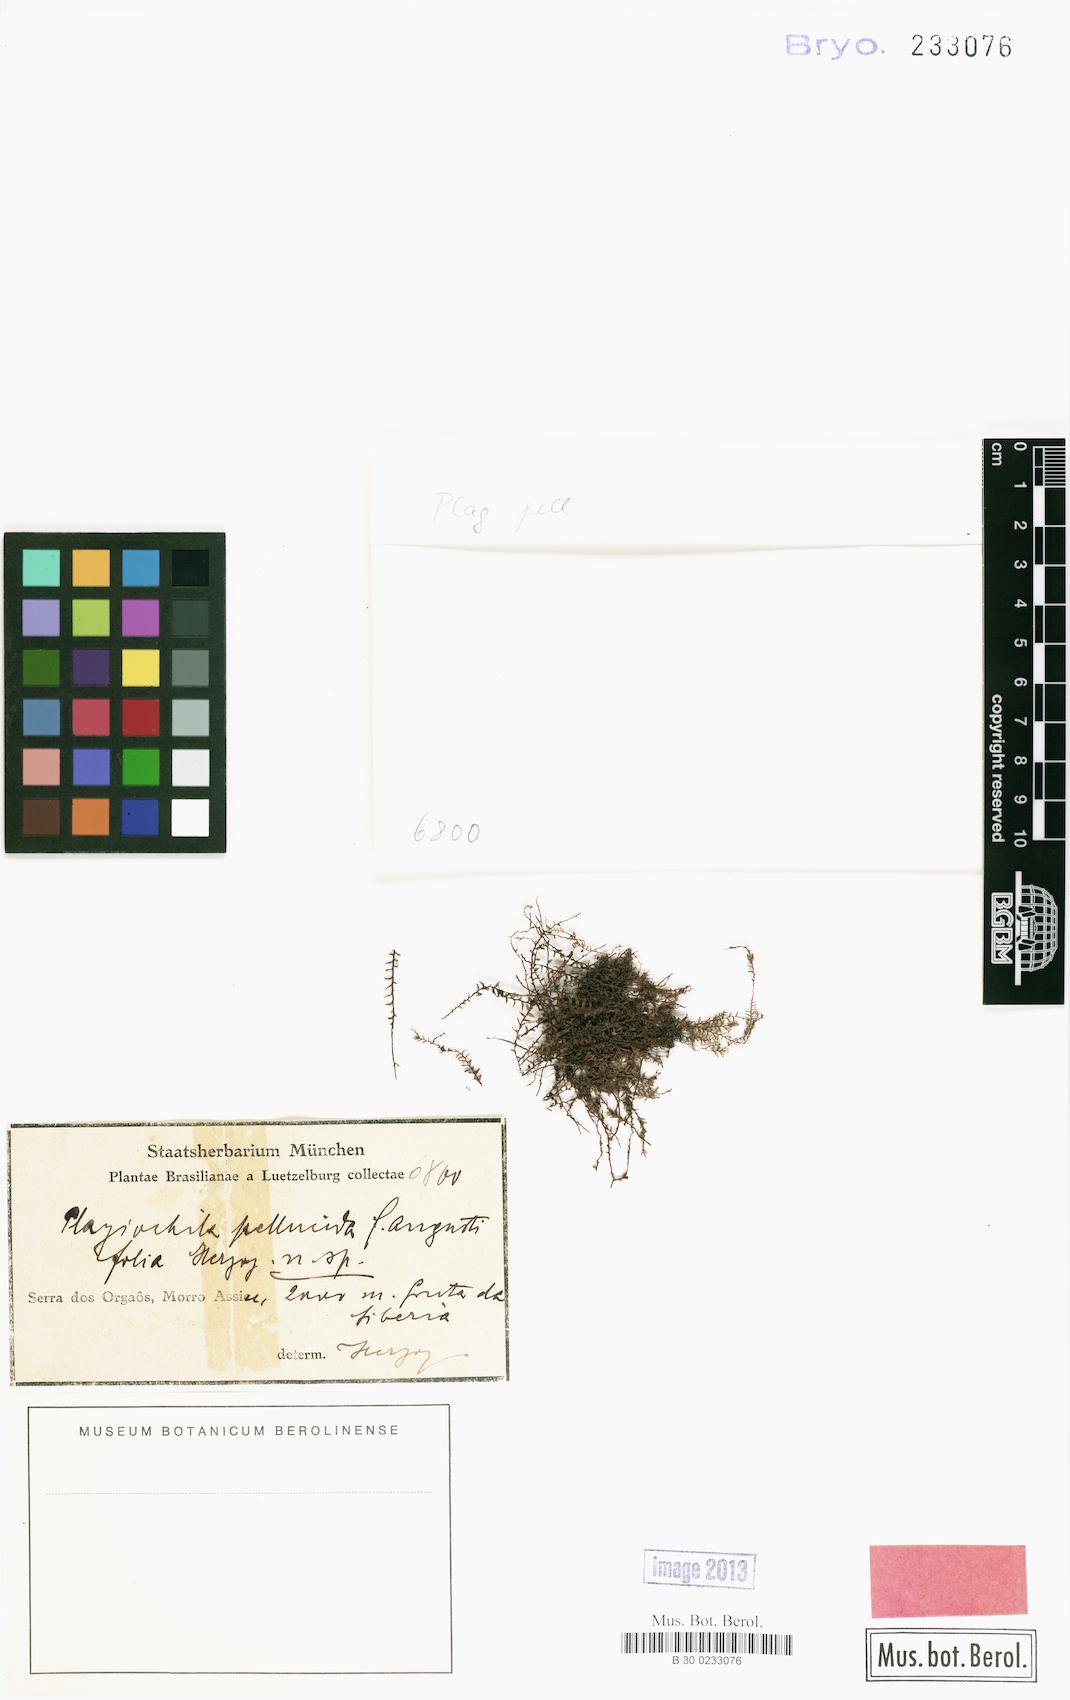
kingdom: Plantae
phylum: Marchantiophyta
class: Jungermanniopsida
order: Jungermanniales
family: Plagiochilaceae
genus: Plagiochila
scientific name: Plagiochila pellucida
